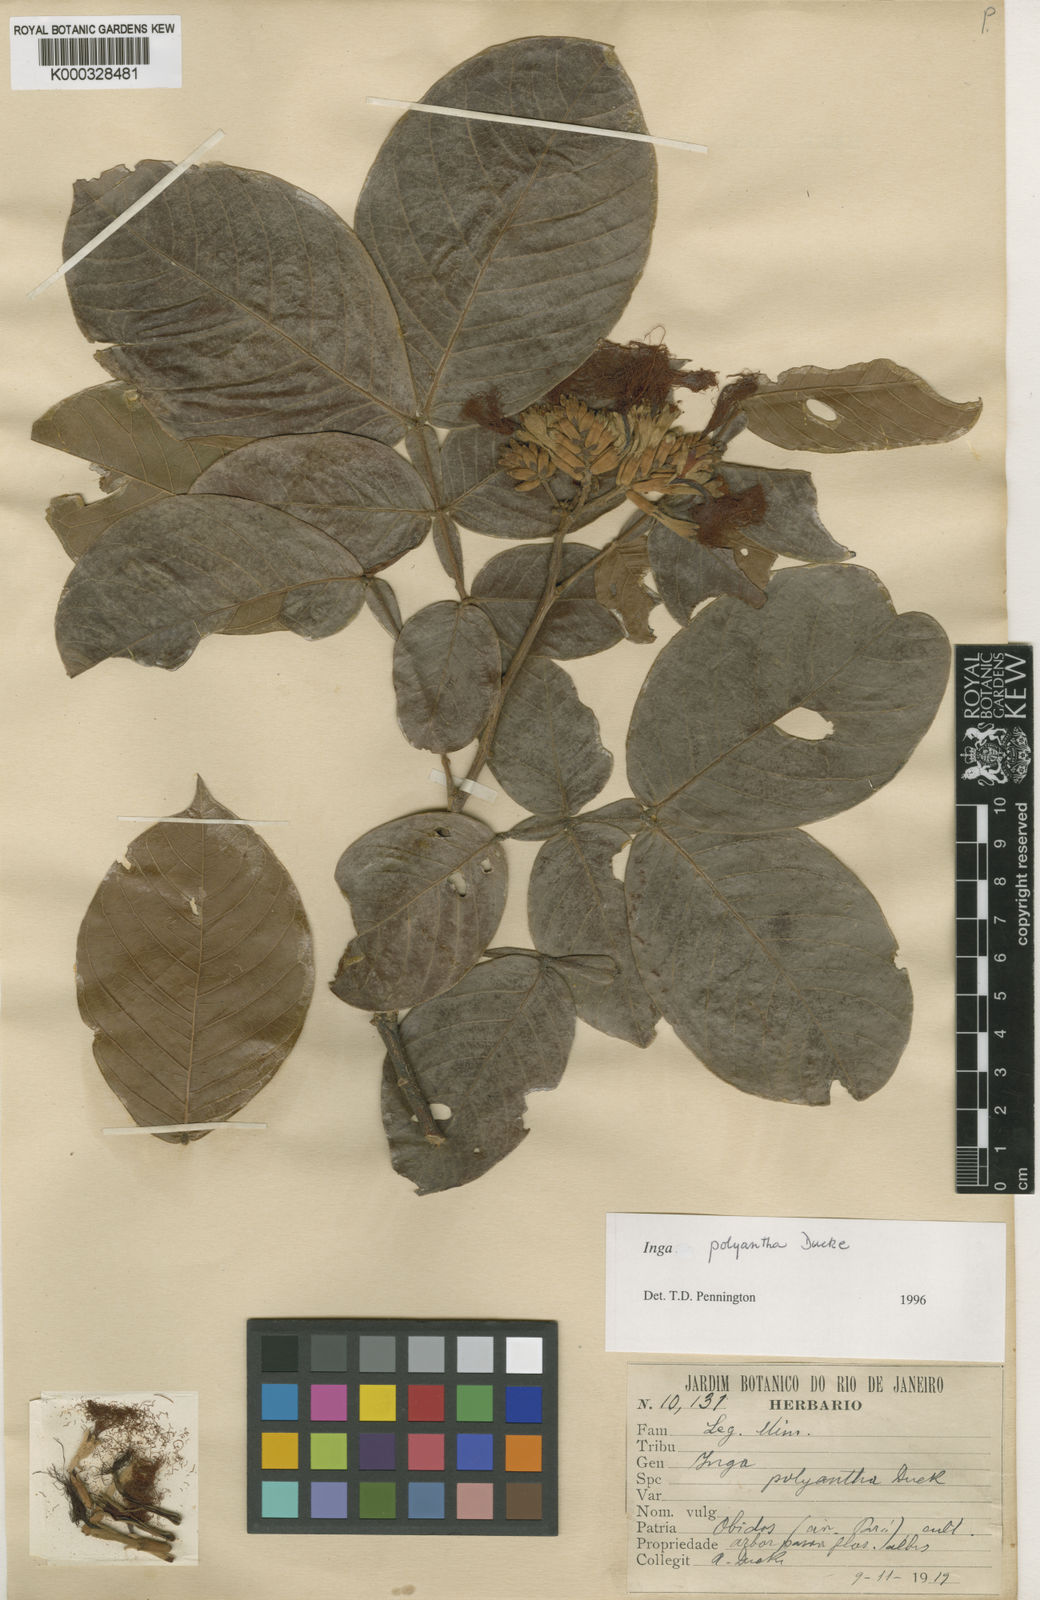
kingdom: Plantae
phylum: Tracheophyta
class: Magnoliopsida
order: Fabales
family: Fabaceae
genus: Inga
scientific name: Inga polyantha
